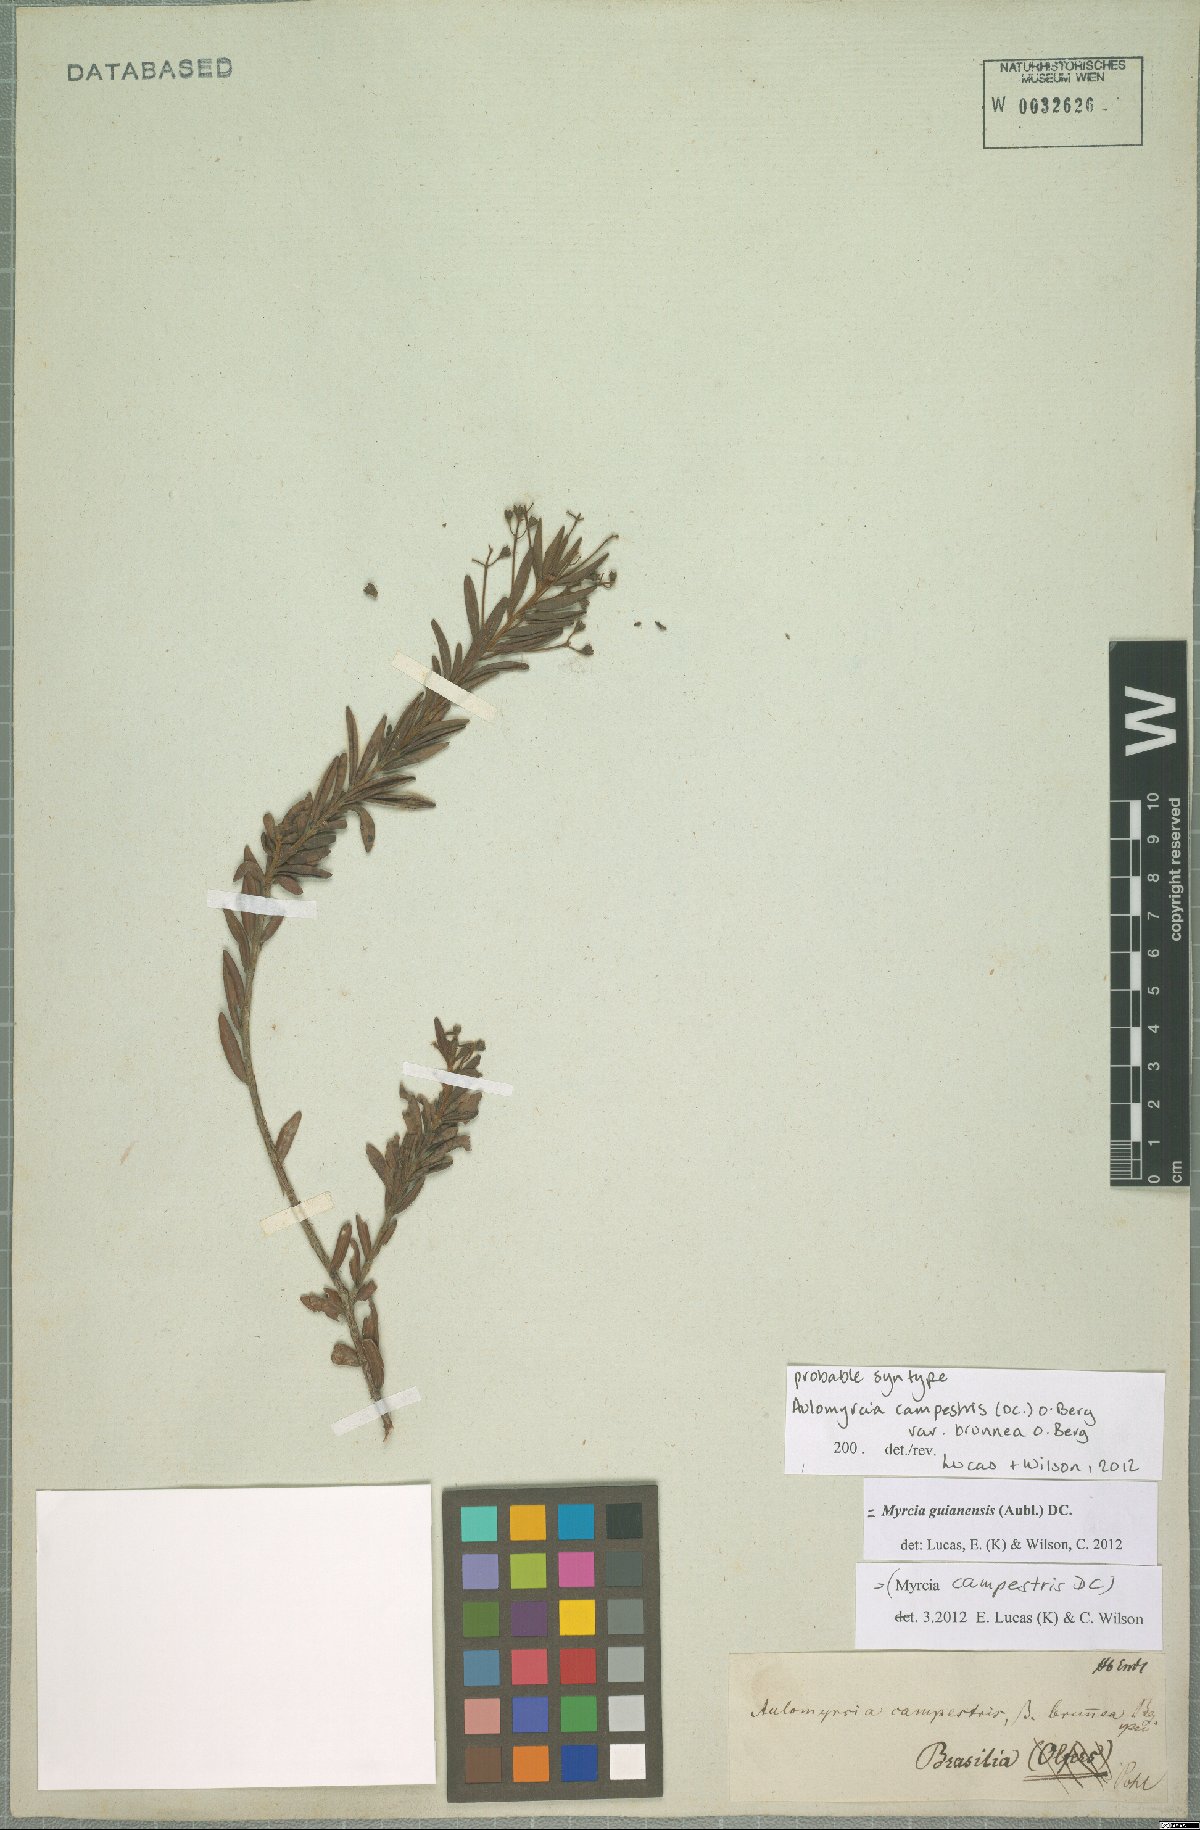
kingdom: Plantae
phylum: Tracheophyta
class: Magnoliopsida
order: Myrtales
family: Myrtaceae
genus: Myrcia
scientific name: Myrcia guianensis
